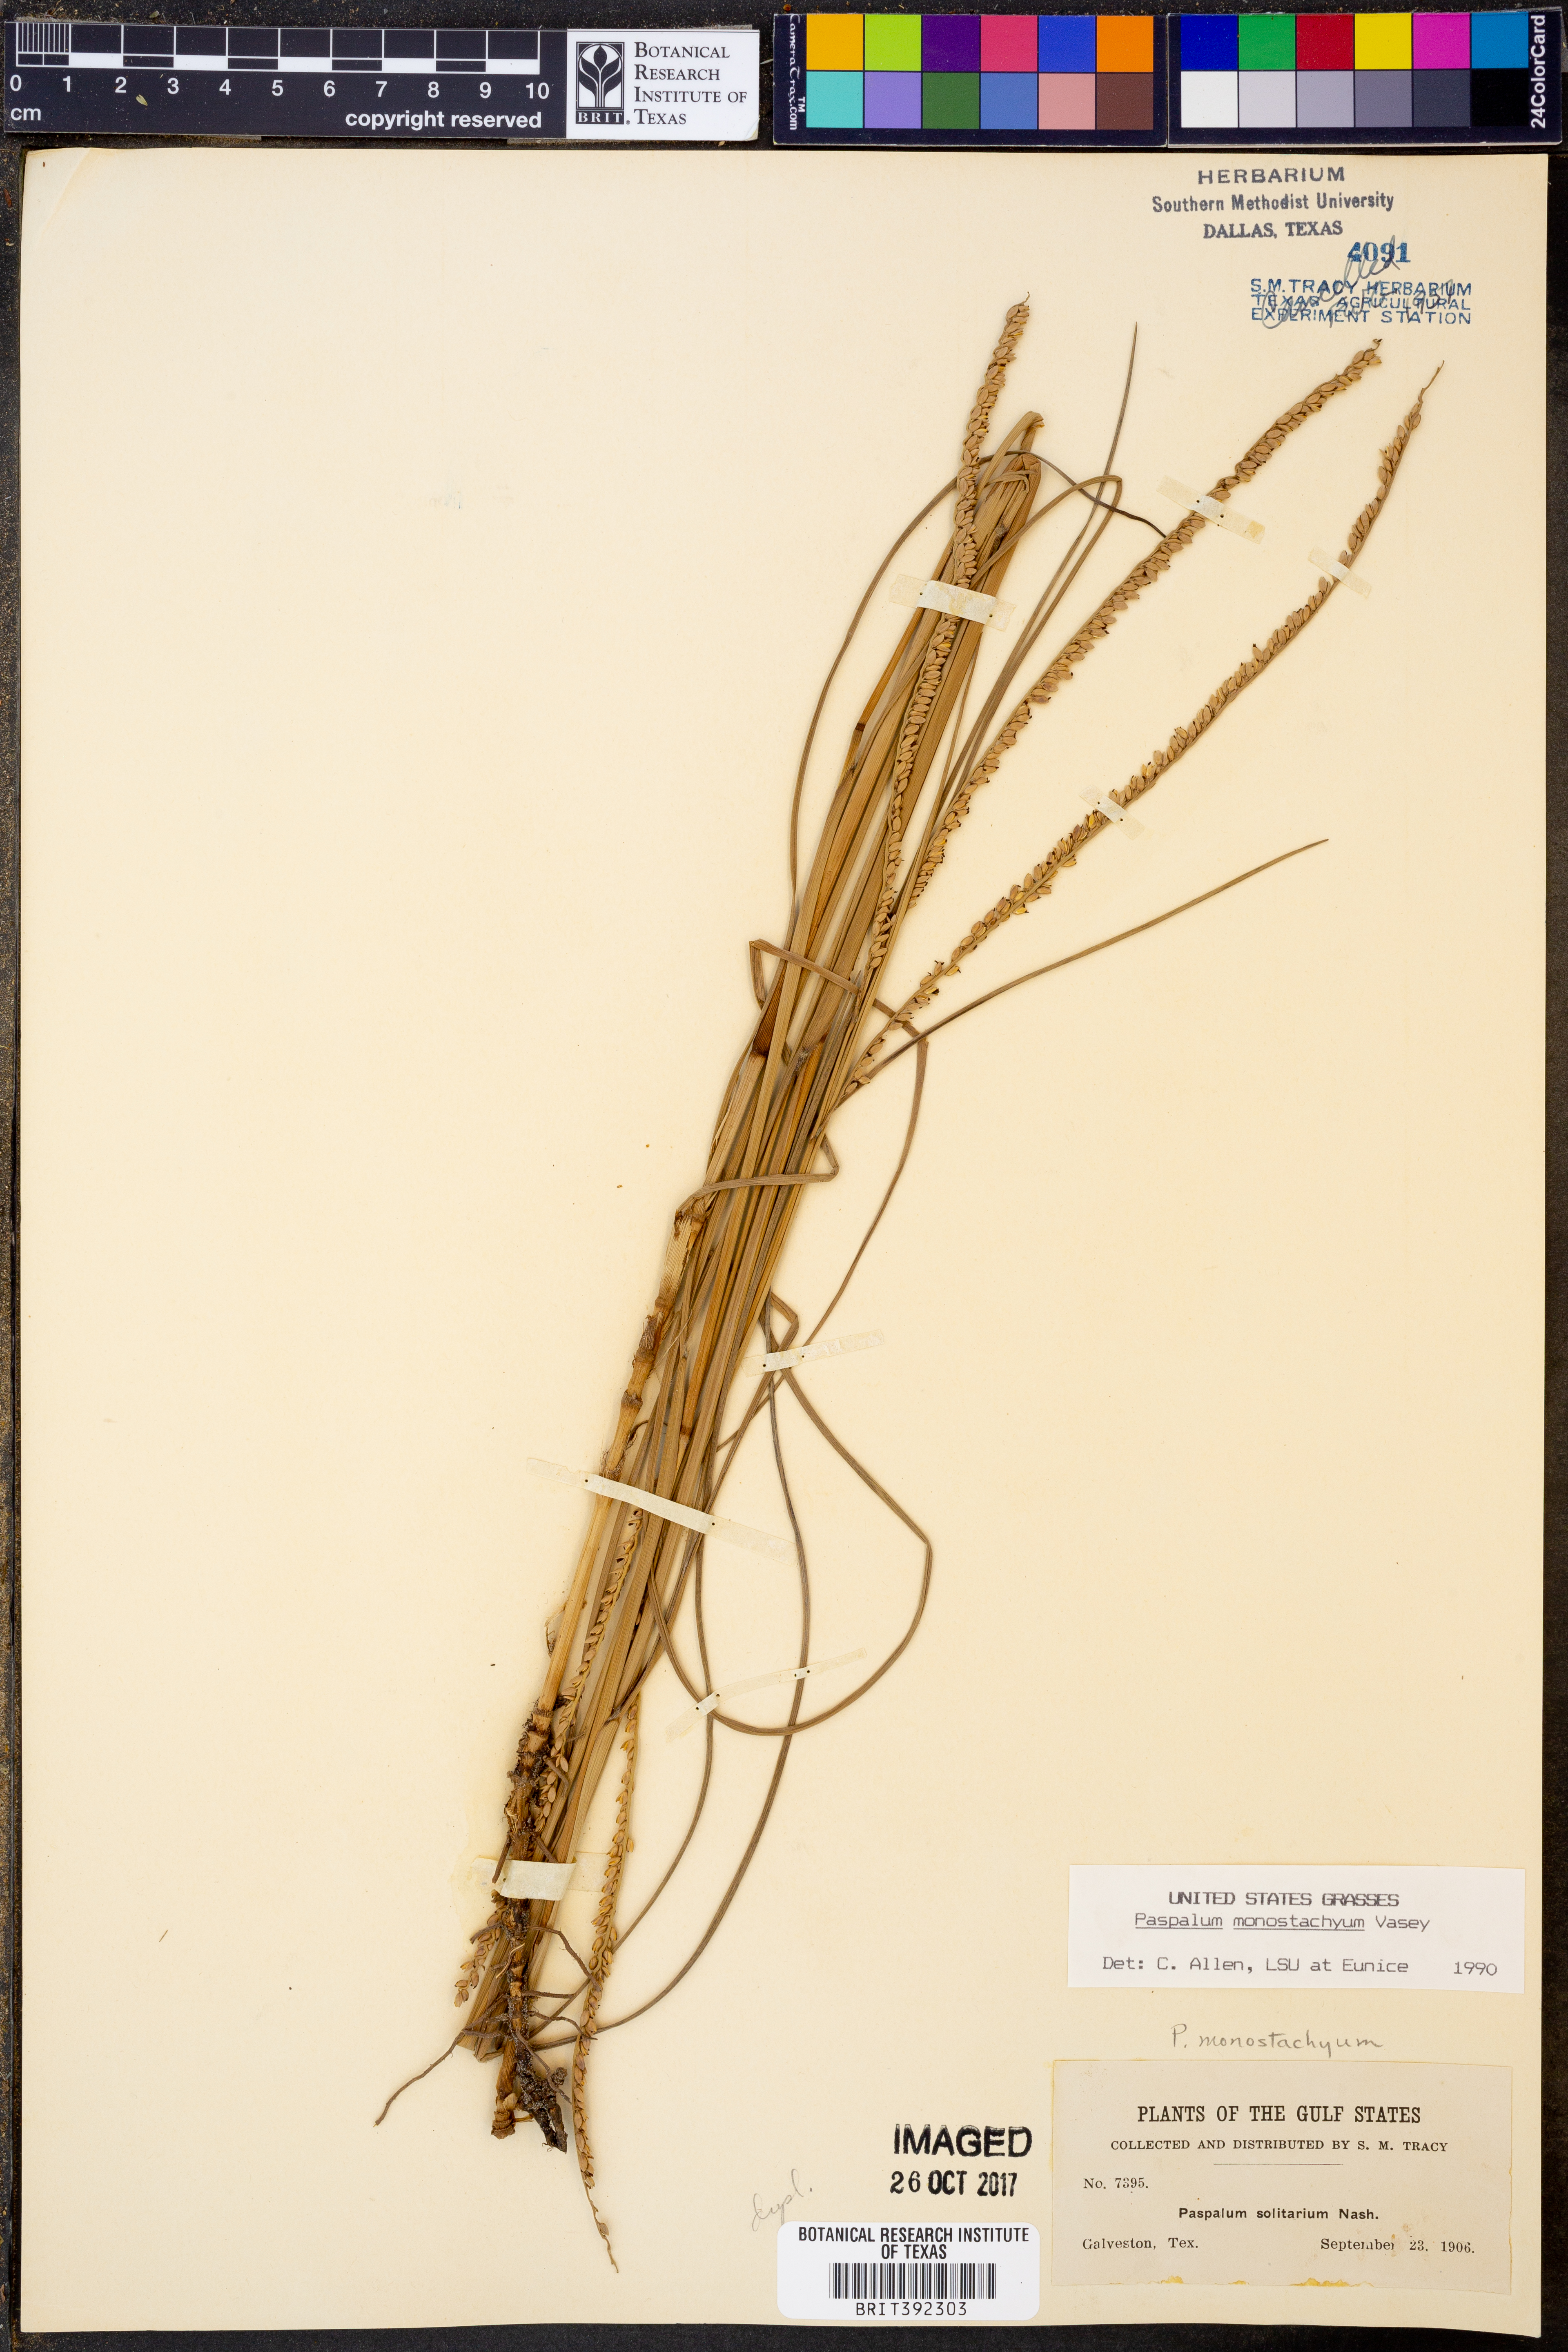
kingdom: Plantae
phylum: Tracheophyta
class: Liliopsida
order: Poales
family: Poaceae
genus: Paspalum
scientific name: Paspalum monostachyum
